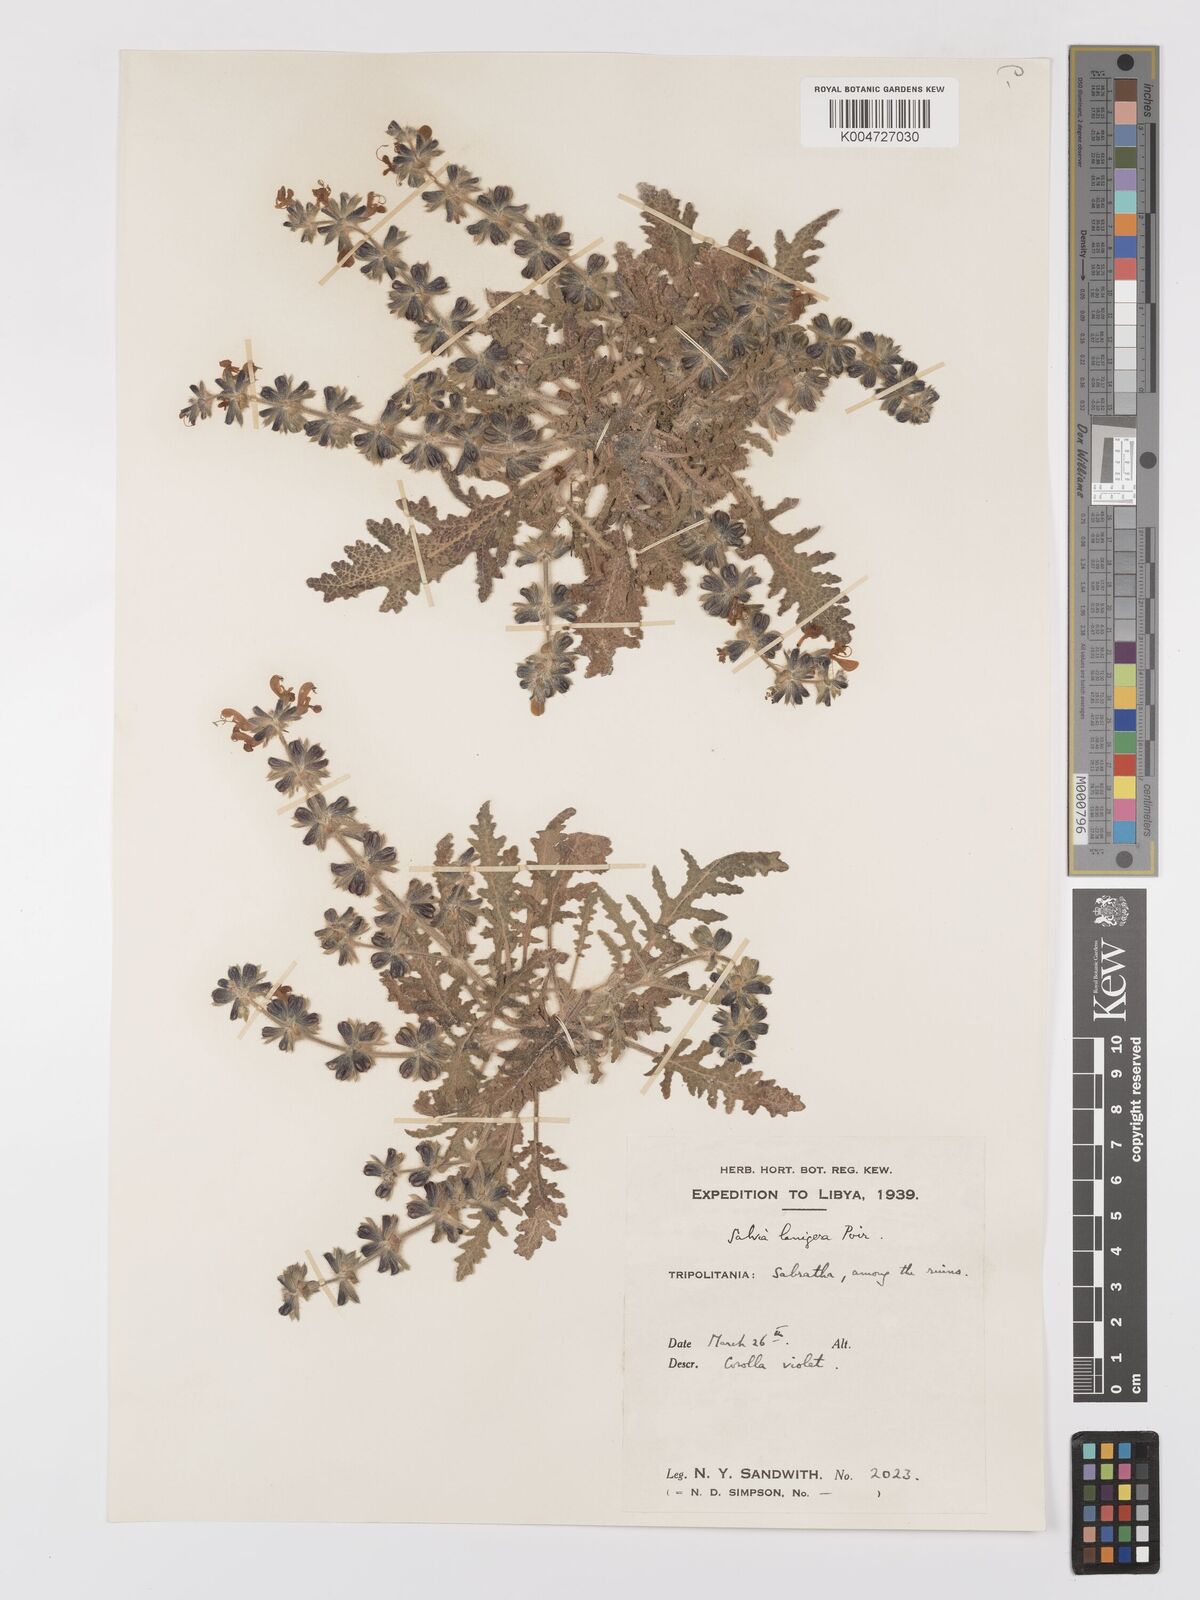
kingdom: Plantae
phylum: Tracheophyta
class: Magnoliopsida
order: Lamiales
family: Lamiaceae
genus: Salvia
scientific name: Salvia lanigera
